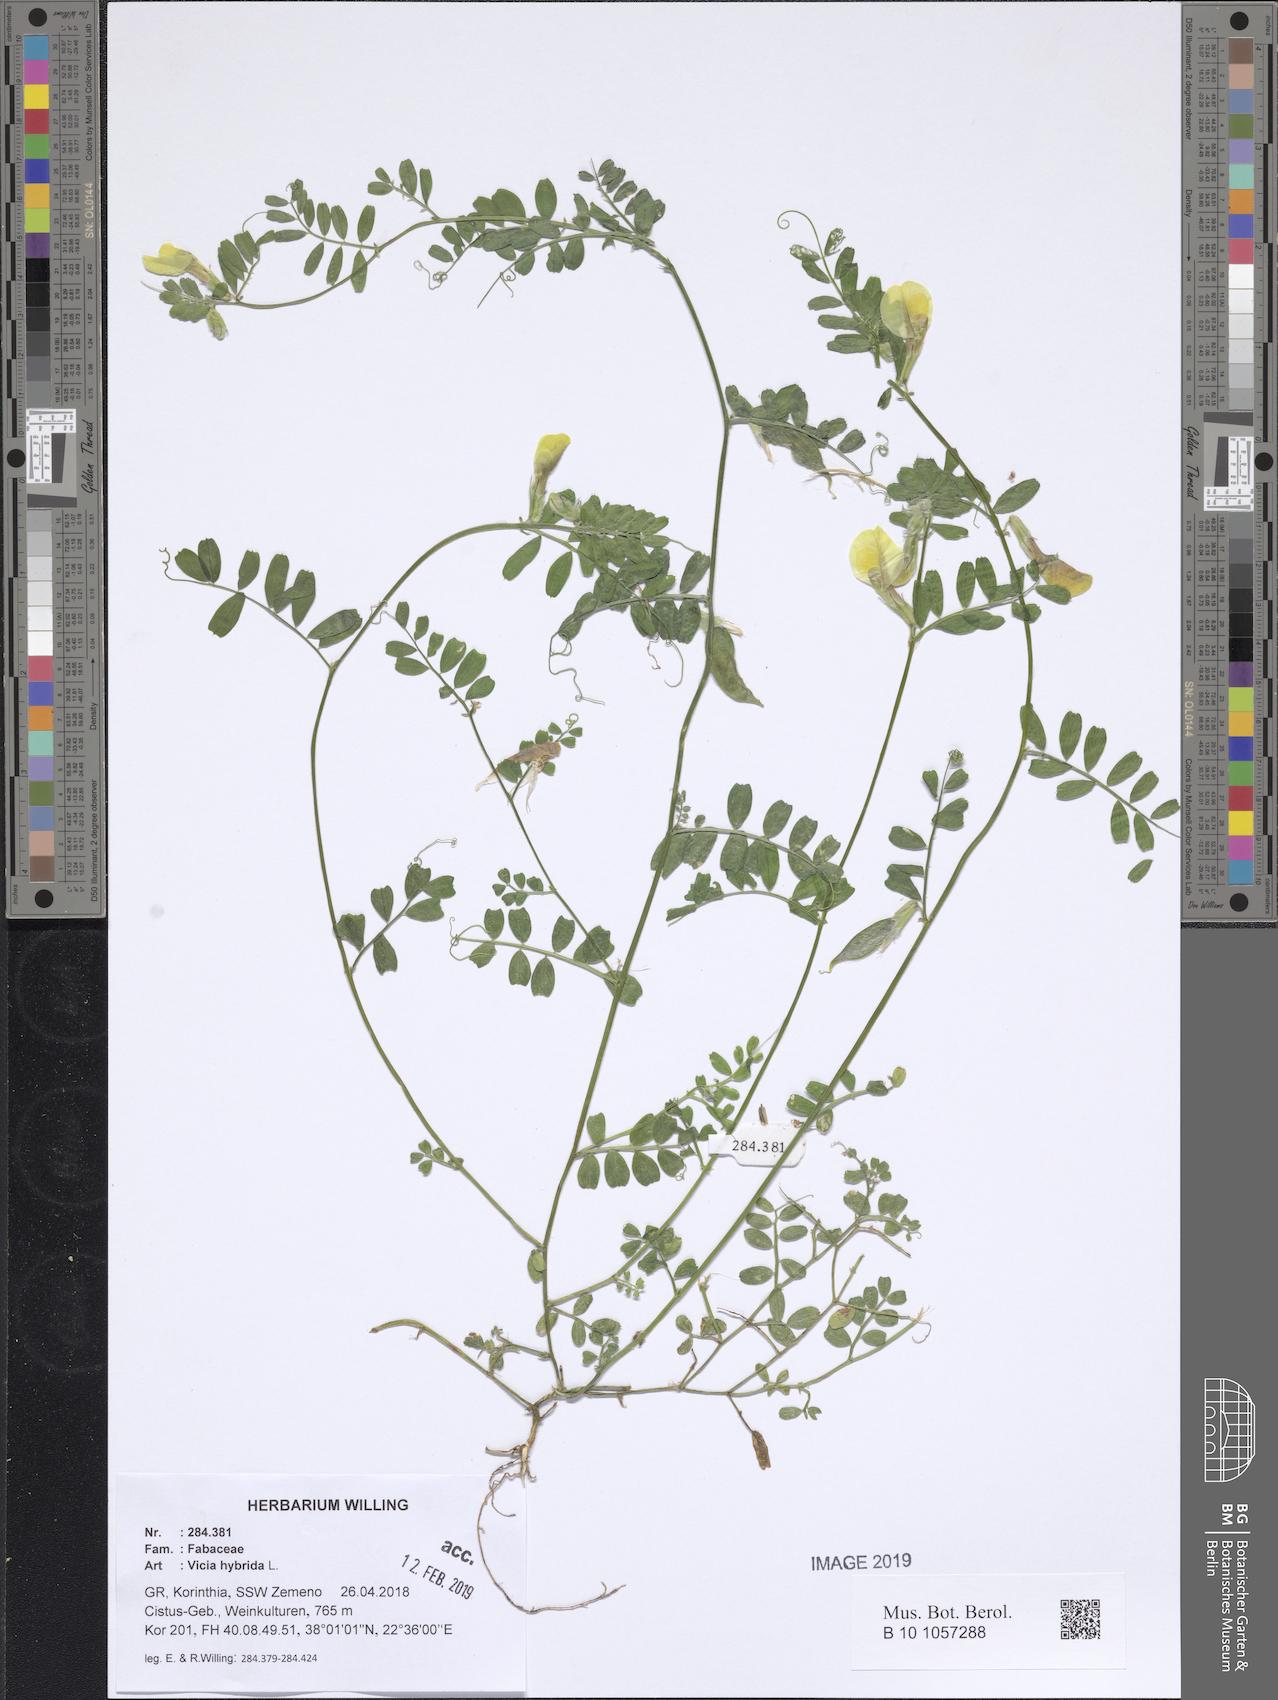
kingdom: Plantae
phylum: Tracheophyta
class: Magnoliopsida
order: Fabales
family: Fabaceae
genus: Vicia
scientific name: Vicia hybrida
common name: Hairy yellow vetch
